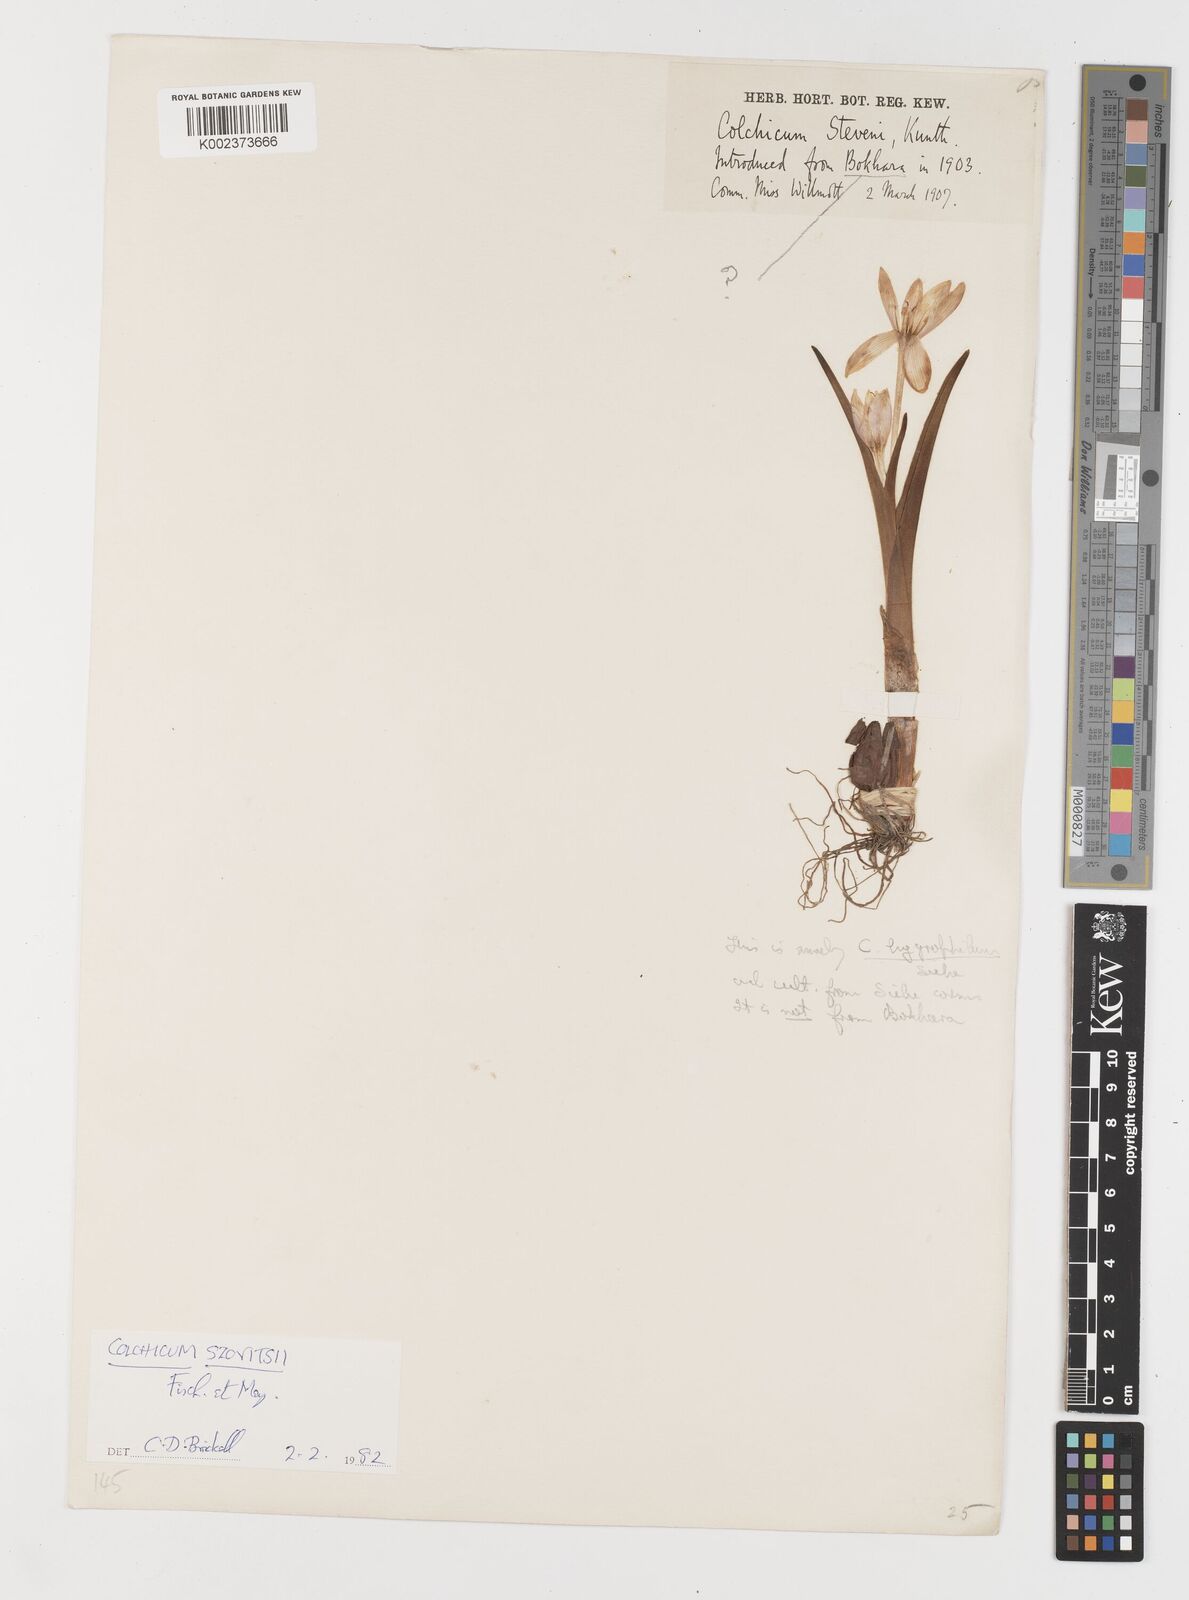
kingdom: Plantae
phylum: Tracheophyta
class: Liliopsida
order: Liliales
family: Colchicaceae
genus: Colchicum
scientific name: Colchicum szovitsii
